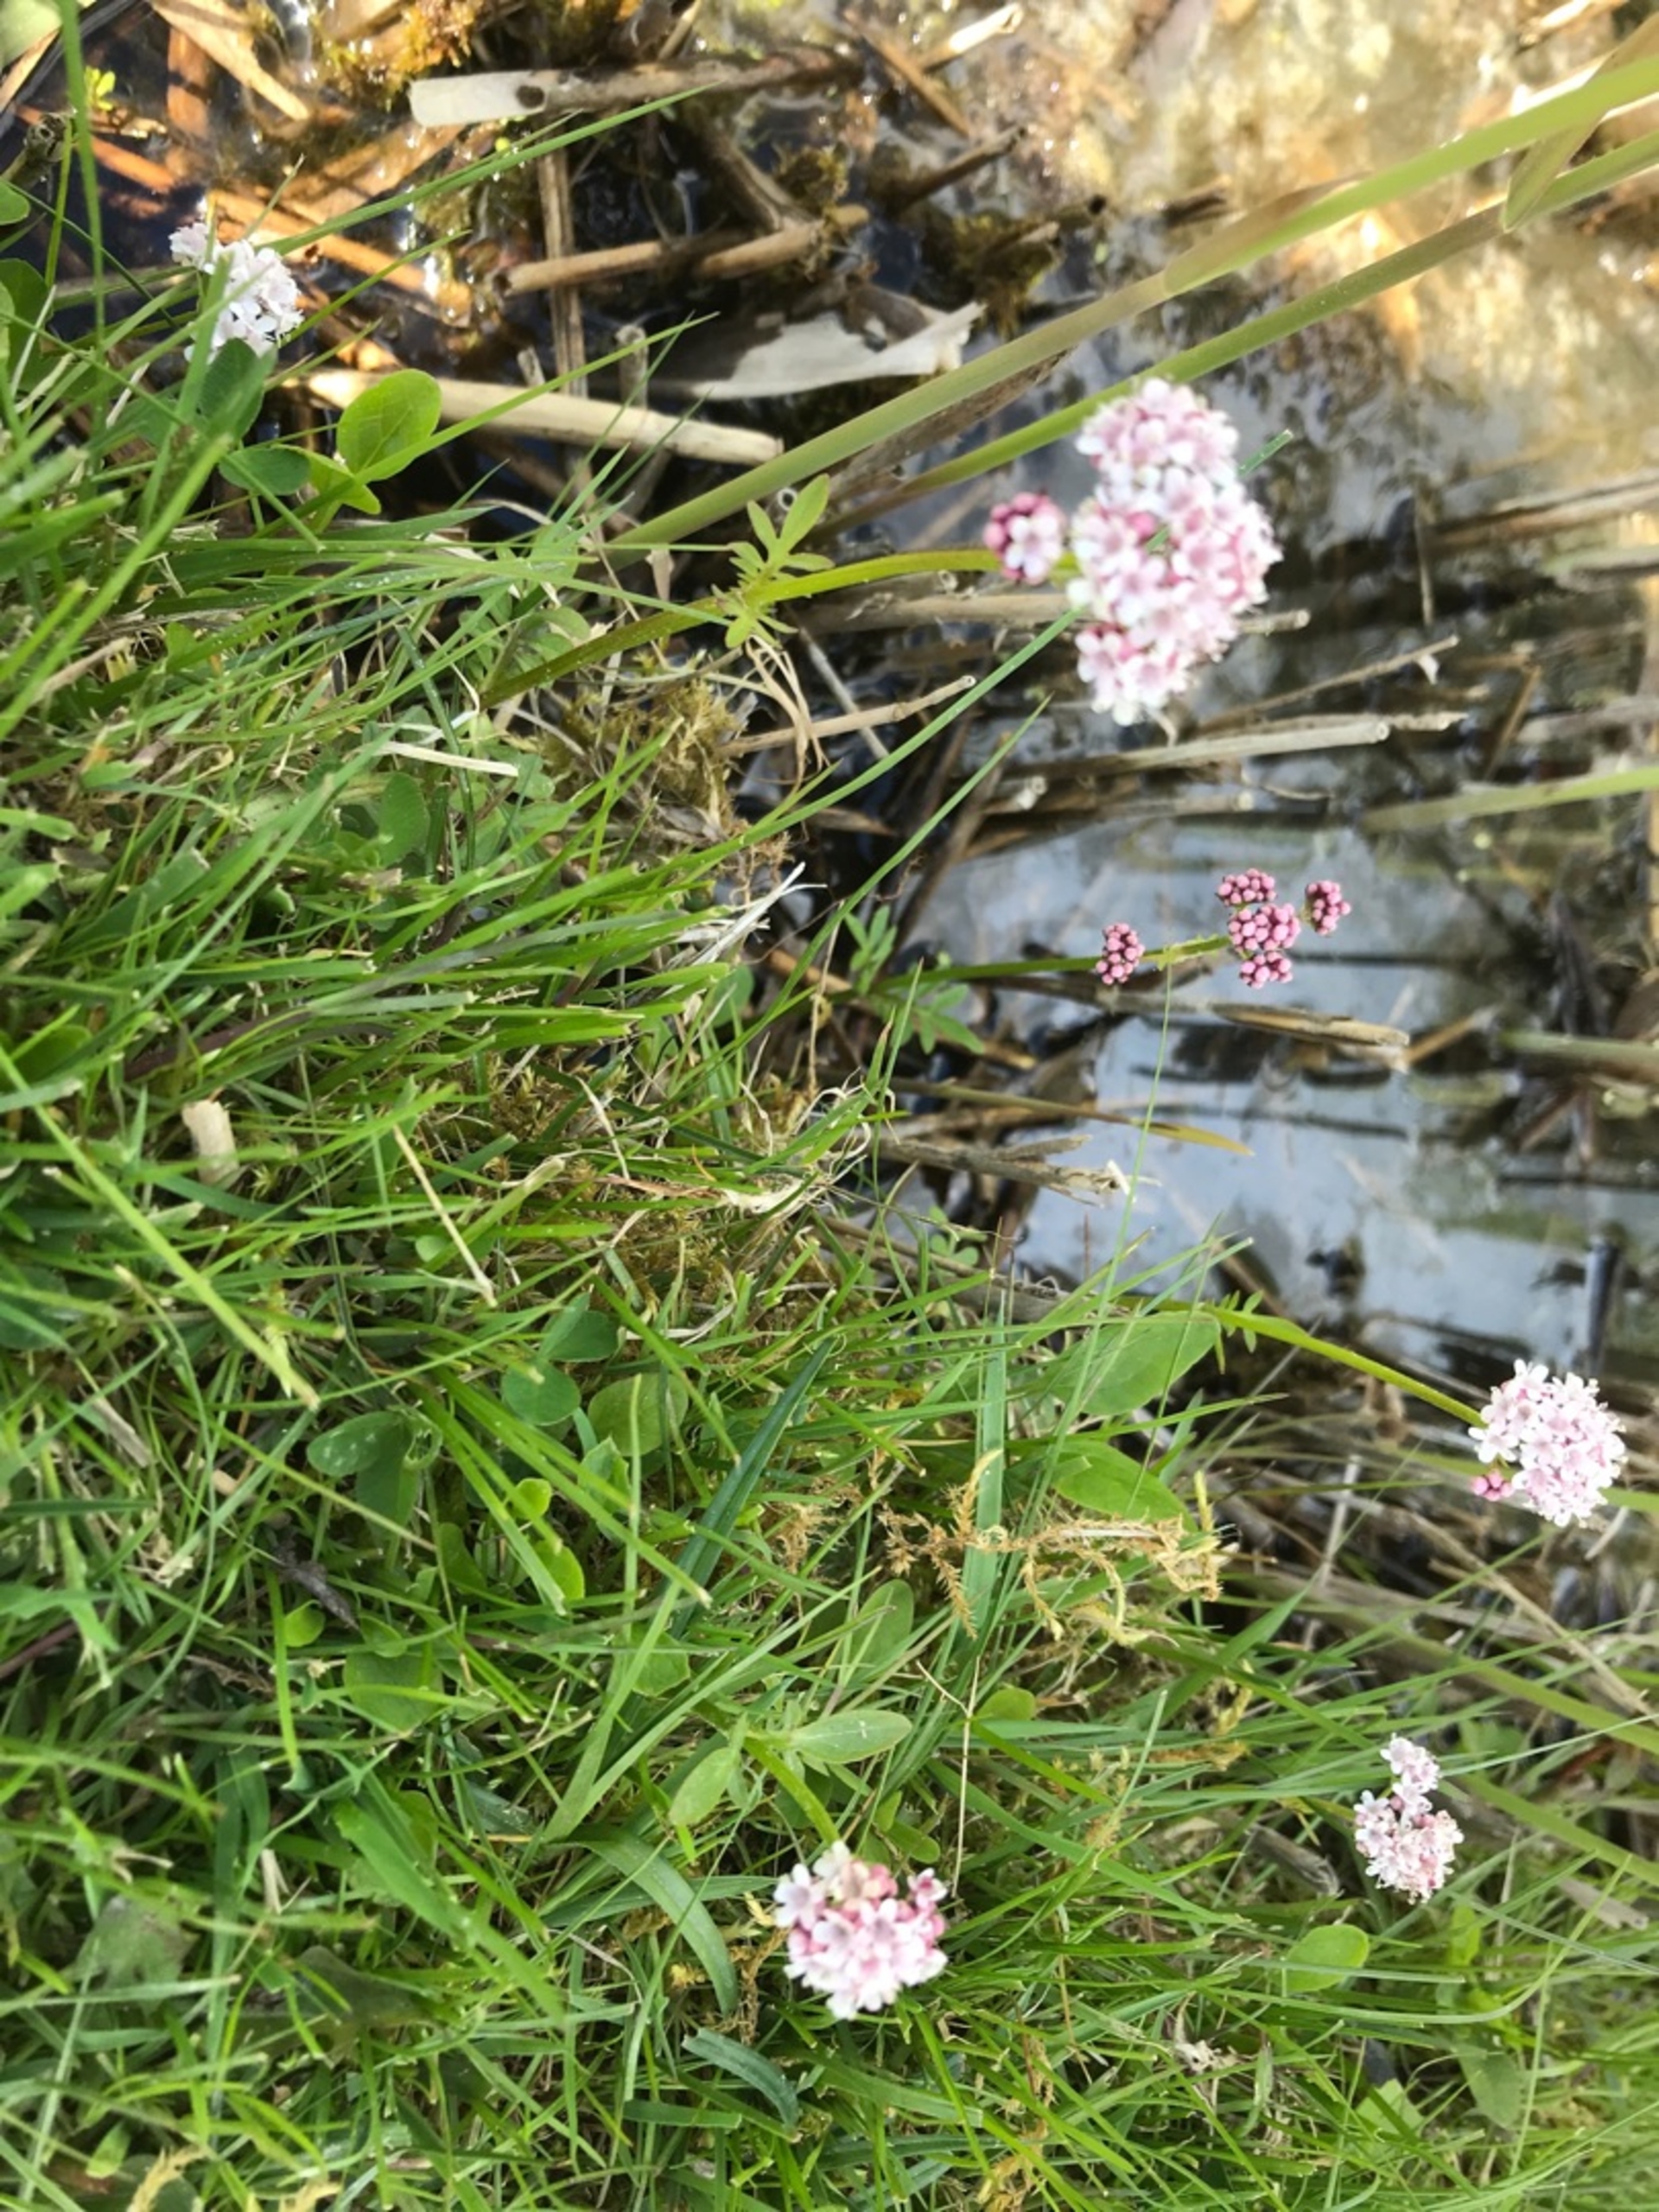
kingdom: Plantae
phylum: Tracheophyta
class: Magnoliopsida
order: Dipsacales
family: Caprifoliaceae
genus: Valeriana
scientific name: Valeriana dioica
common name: Tvebo baldrian
